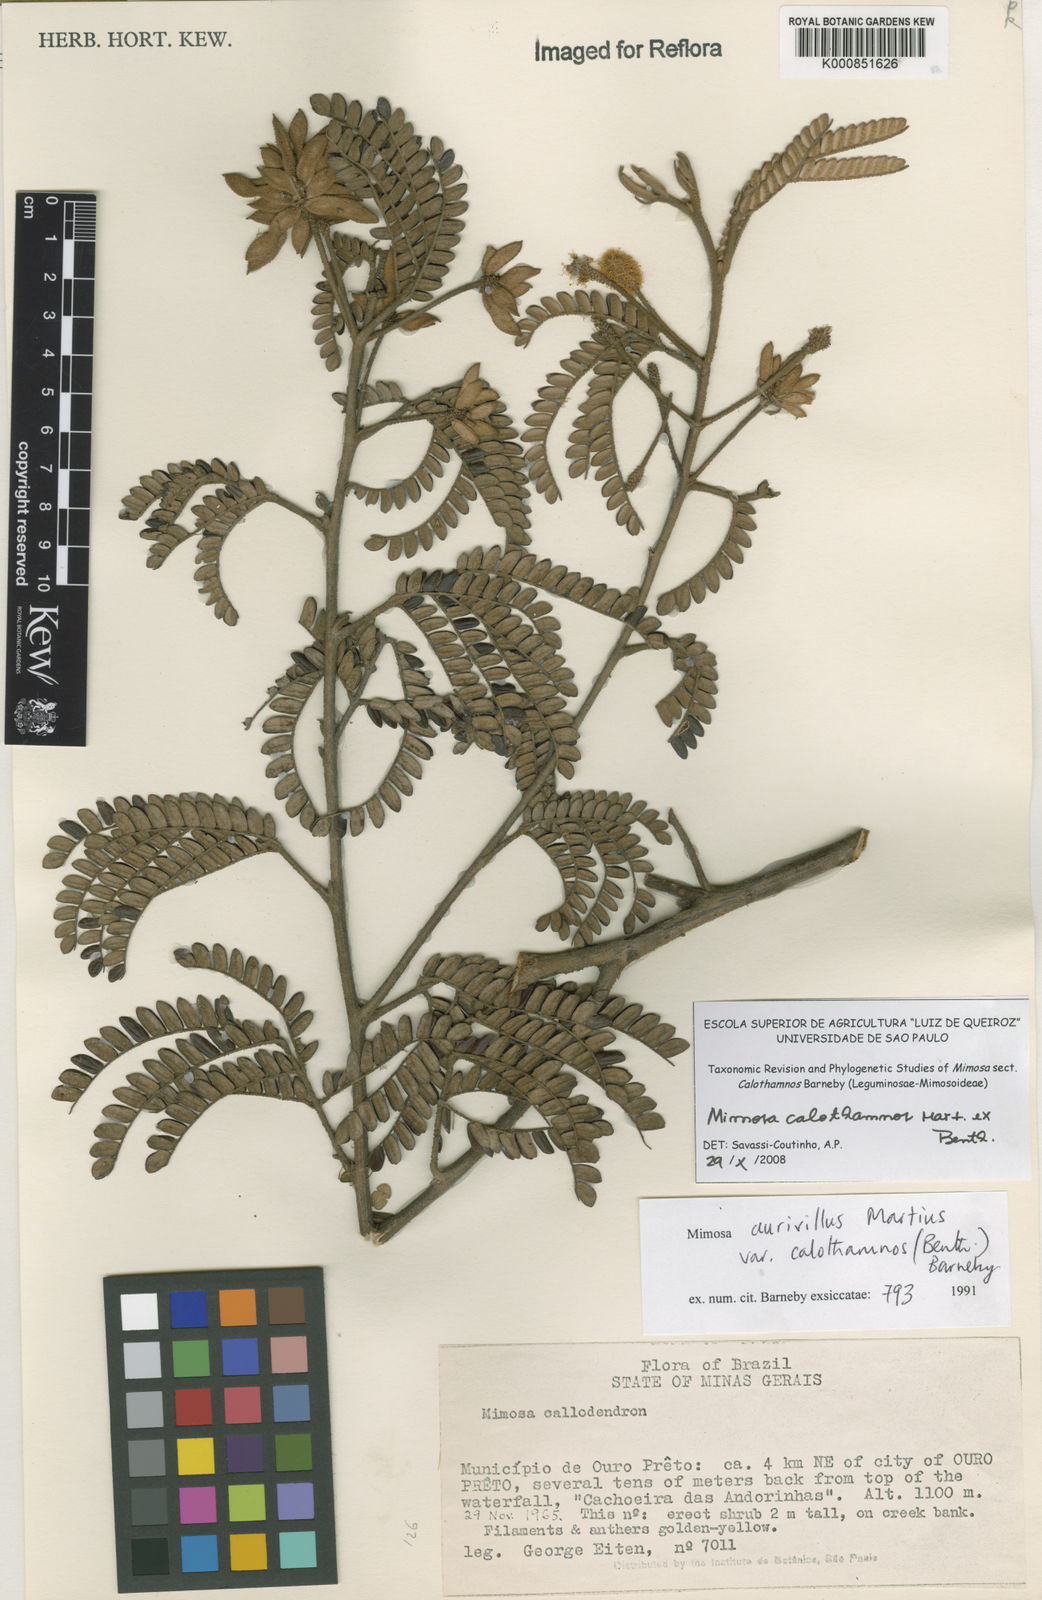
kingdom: Plantae
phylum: Tracheophyta
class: Magnoliopsida
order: Fabales
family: Fabaceae
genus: Mimosa
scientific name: Mimosa aurivillus
